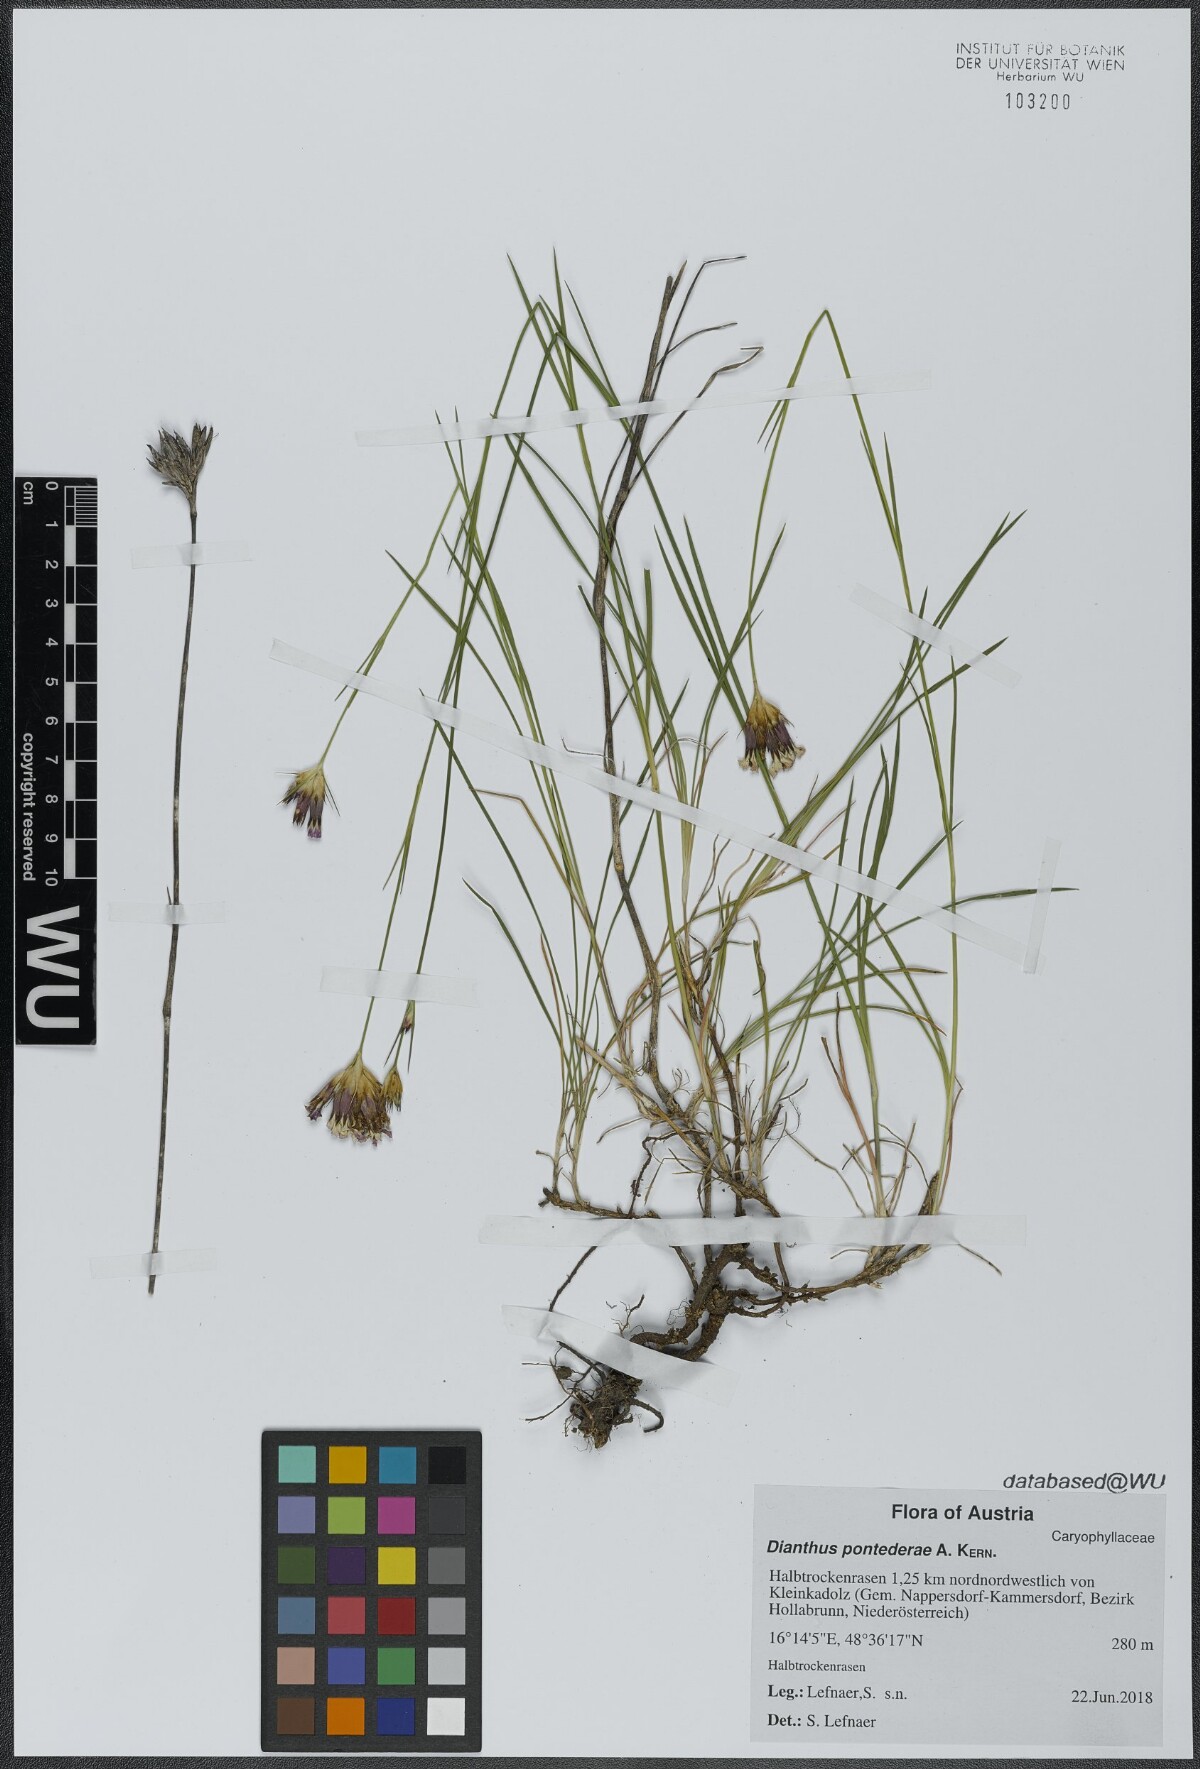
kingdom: Plantae
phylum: Tracheophyta
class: Magnoliopsida
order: Caryophyllales
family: Caryophyllaceae
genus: Dianthus
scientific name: Dianthus pontederae
